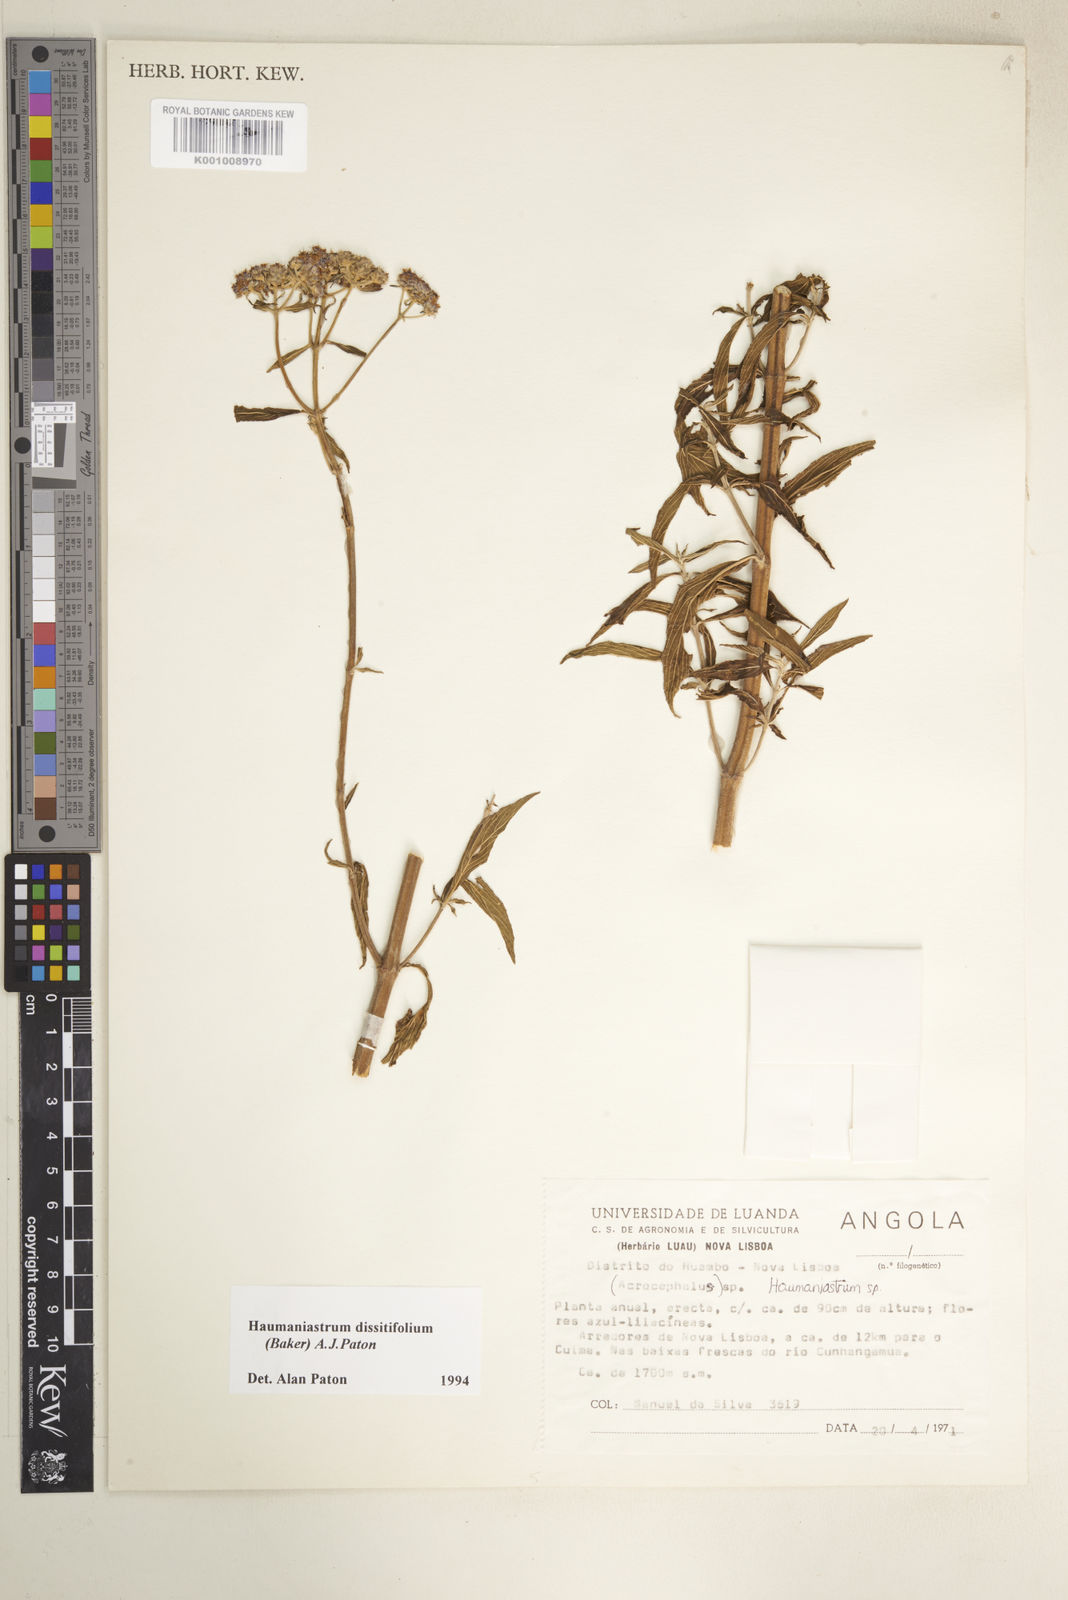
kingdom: Plantae
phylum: Tracheophyta
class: Magnoliopsida
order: Lamiales
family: Lamiaceae
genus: Haumaniastrum
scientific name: Haumaniastrum dissitifolium
